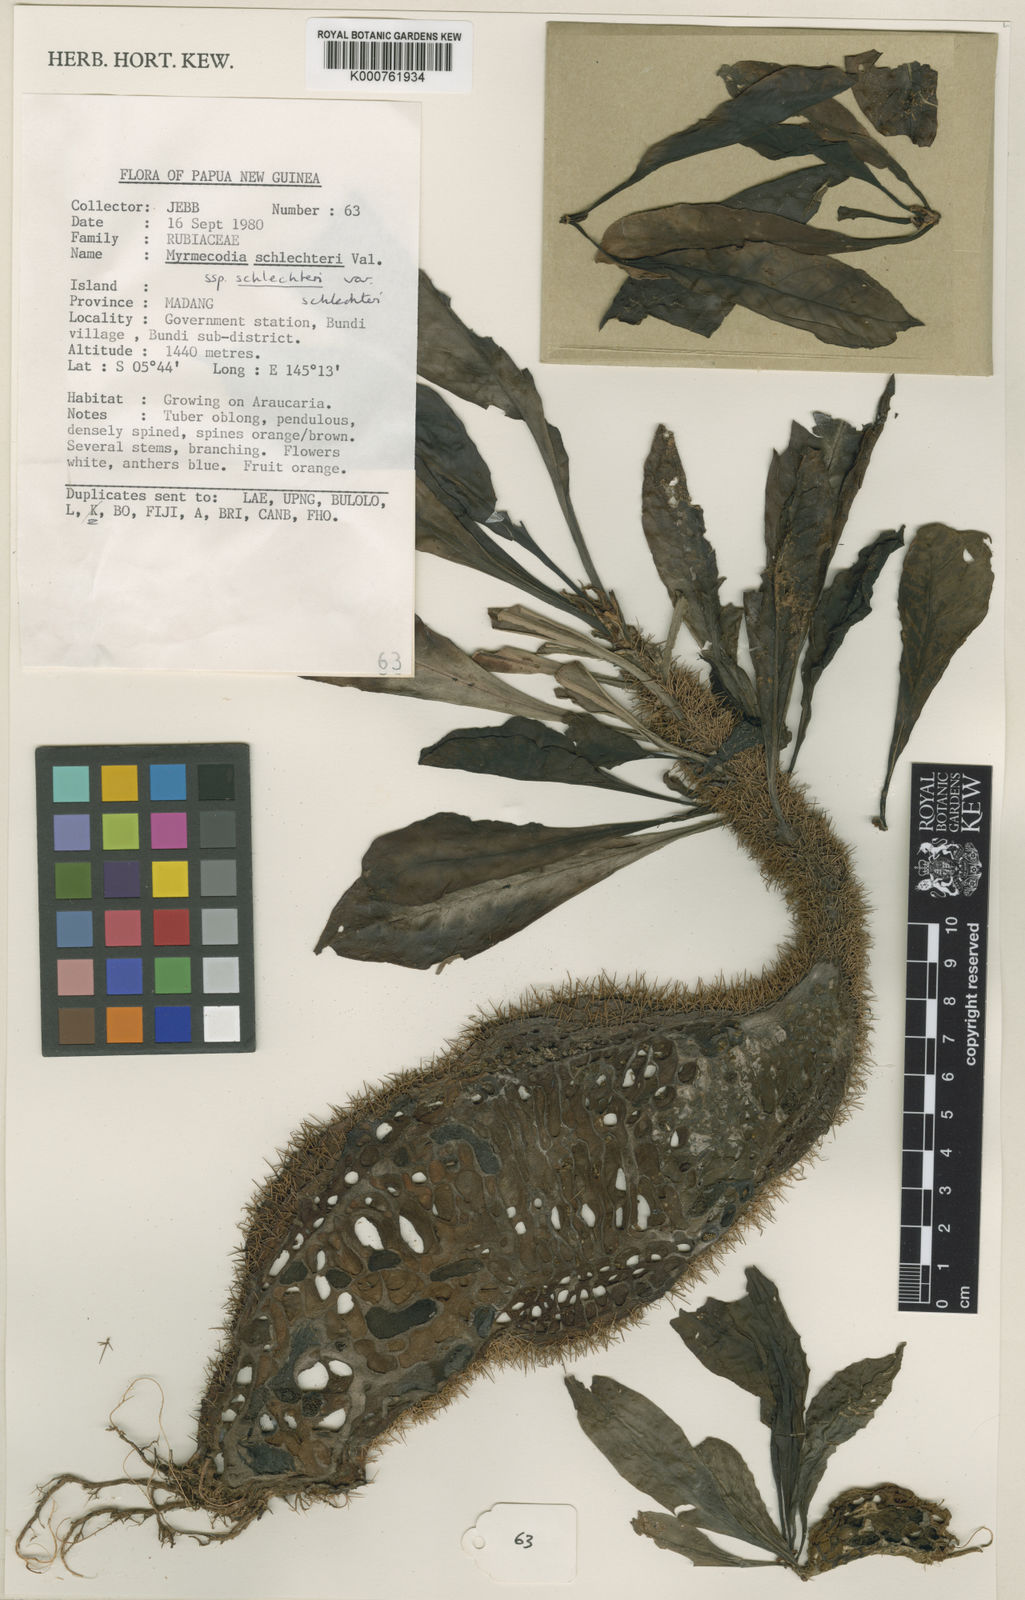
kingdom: Plantae
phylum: Tracheophyta
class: Magnoliopsida
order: Gentianales
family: Rubiaceae
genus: Myrmecodia
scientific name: Myrmecodia schlechteri
